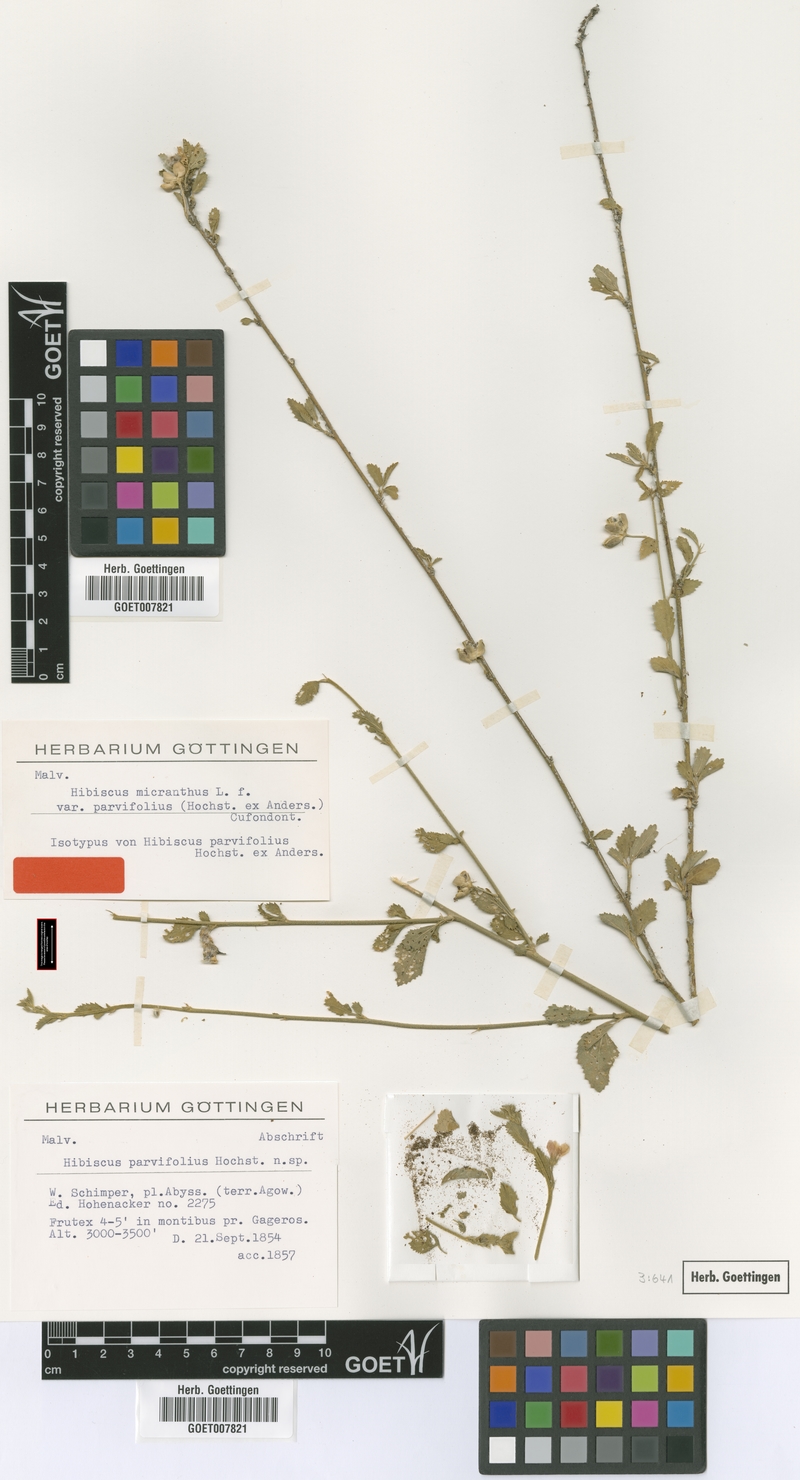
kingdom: Plantae
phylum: Tracheophyta
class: Magnoliopsida
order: Malvales
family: Malvaceae
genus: Hibiscus
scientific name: Hibiscus micranthus
